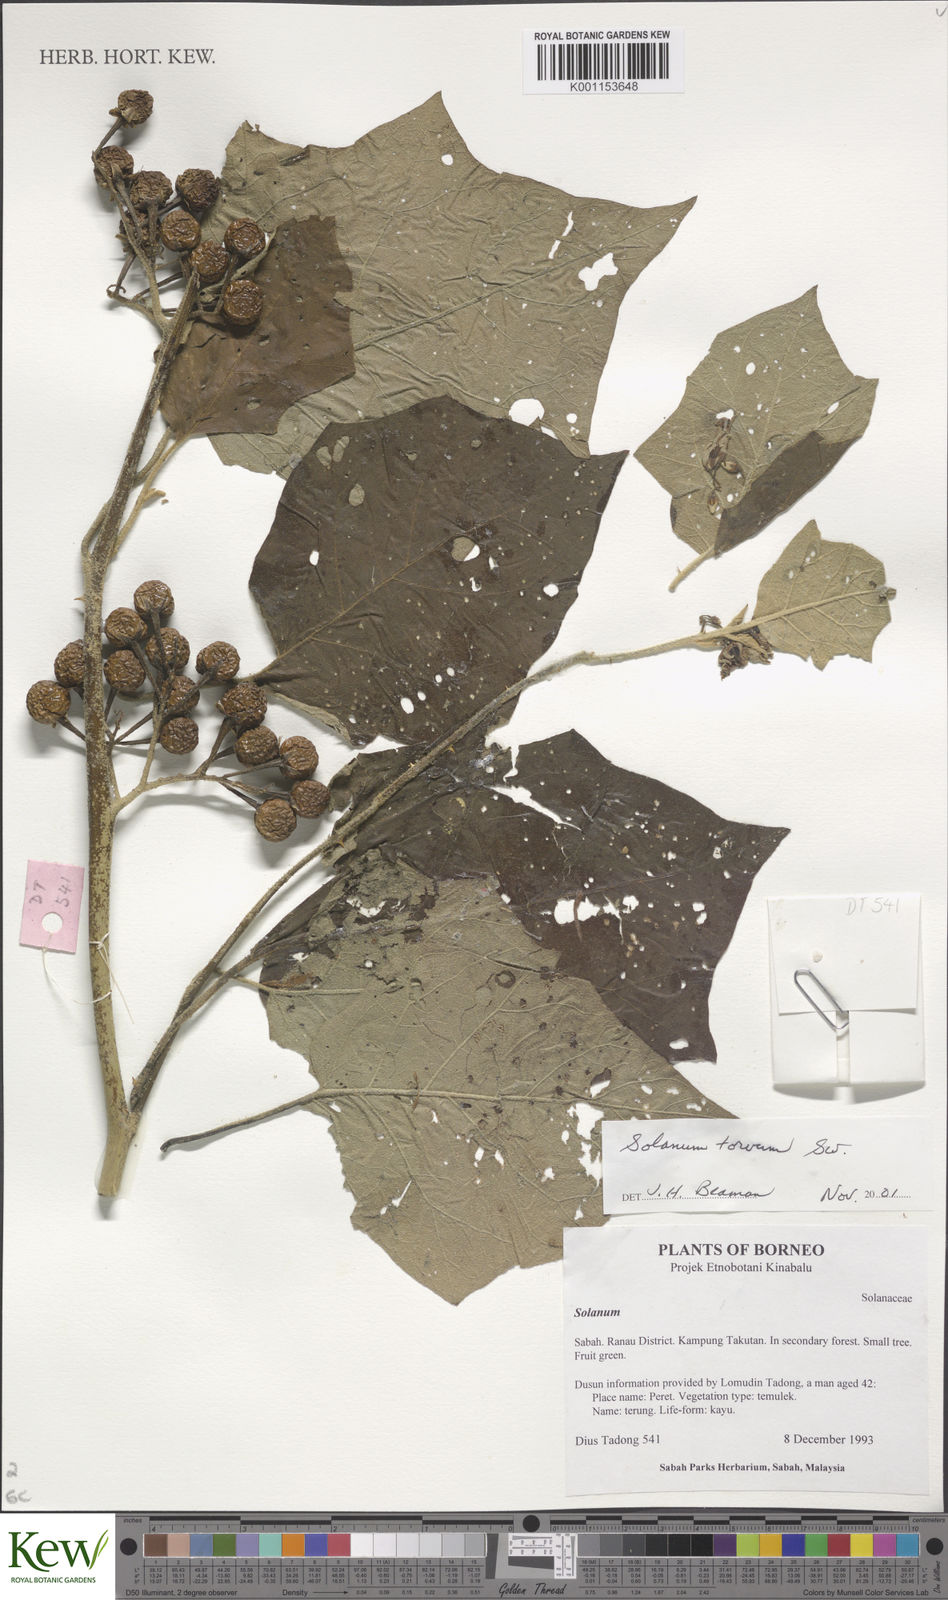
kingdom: Plantae
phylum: Tracheophyta
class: Magnoliopsida
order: Solanales
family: Solanaceae
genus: Solanum
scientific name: Solanum torvum
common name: Turkey berry
